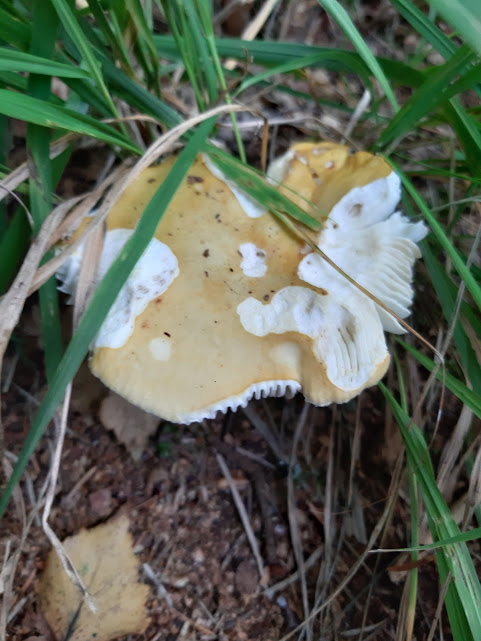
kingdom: Fungi
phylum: Basidiomycota
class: Agaricomycetes
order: Russulales
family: Russulaceae
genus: Russula
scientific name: Russula claroflava
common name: birke-skørhat
